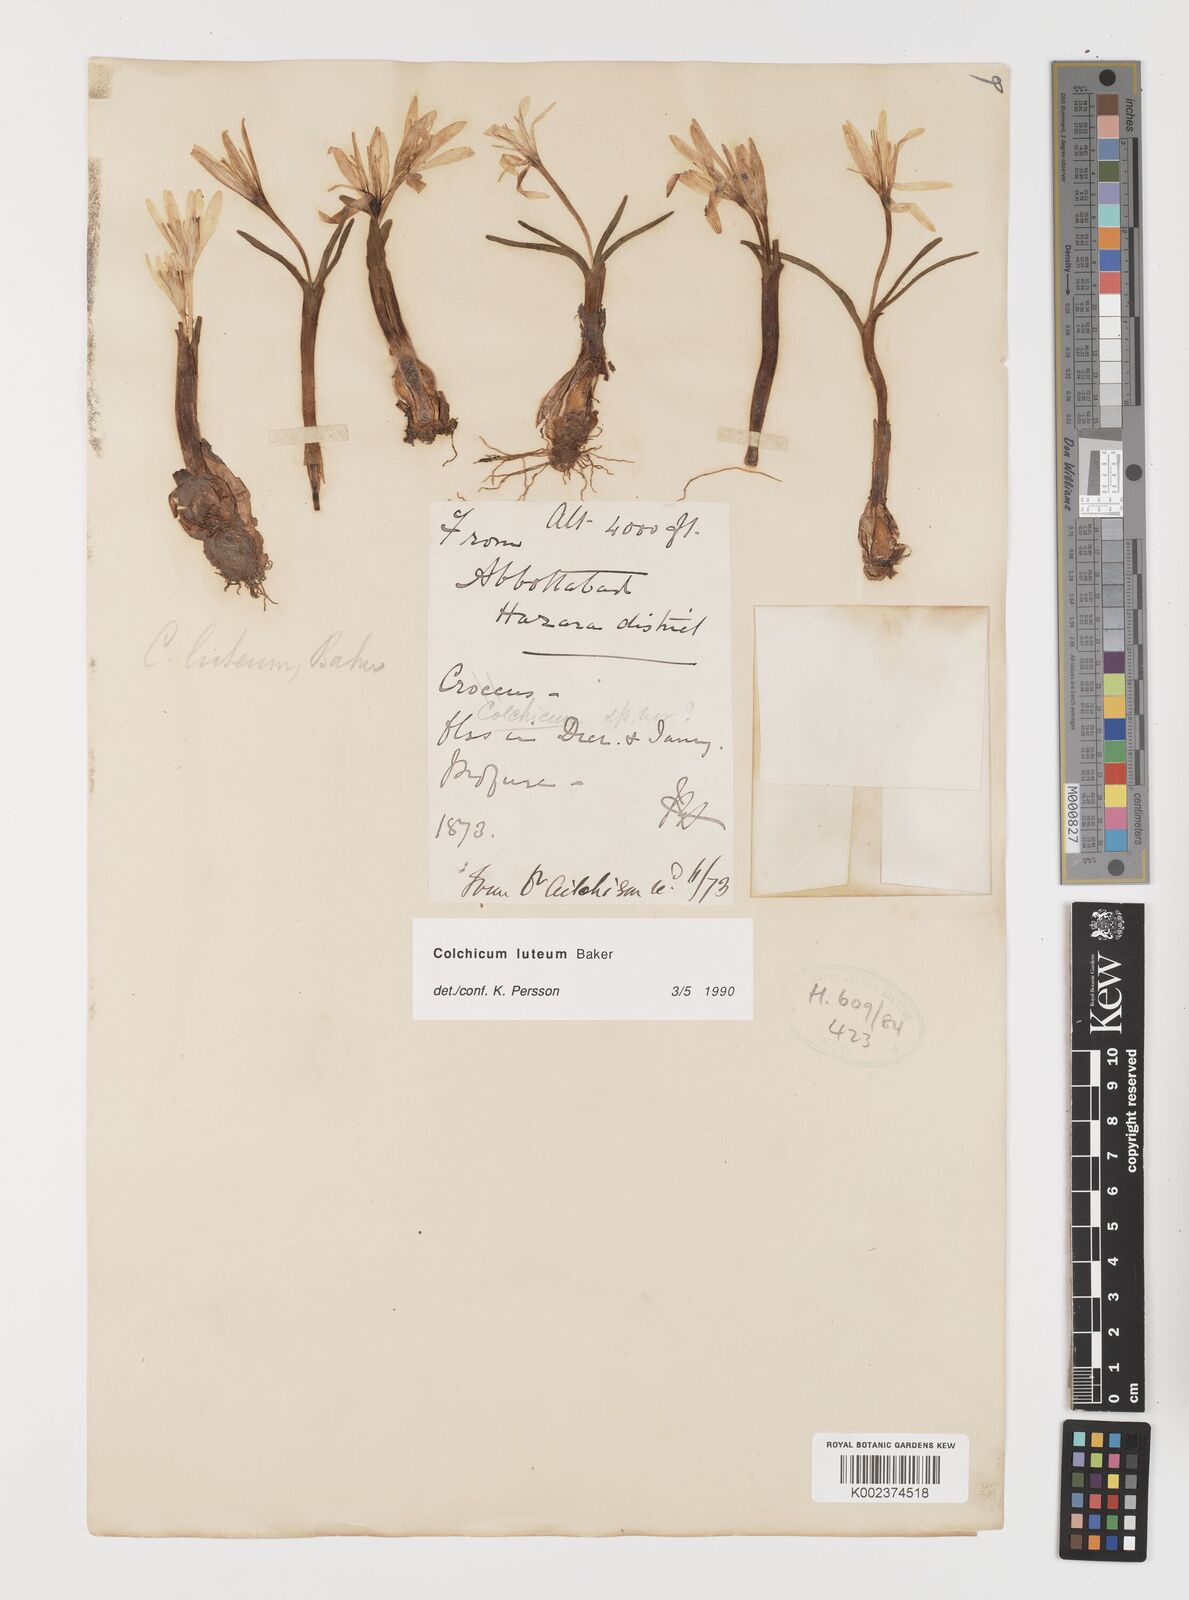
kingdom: Plantae
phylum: Tracheophyta
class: Liliopsida
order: Liliales
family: Colchicaceae
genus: Colchicum
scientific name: Colchicum luteum
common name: Indian colchicum
